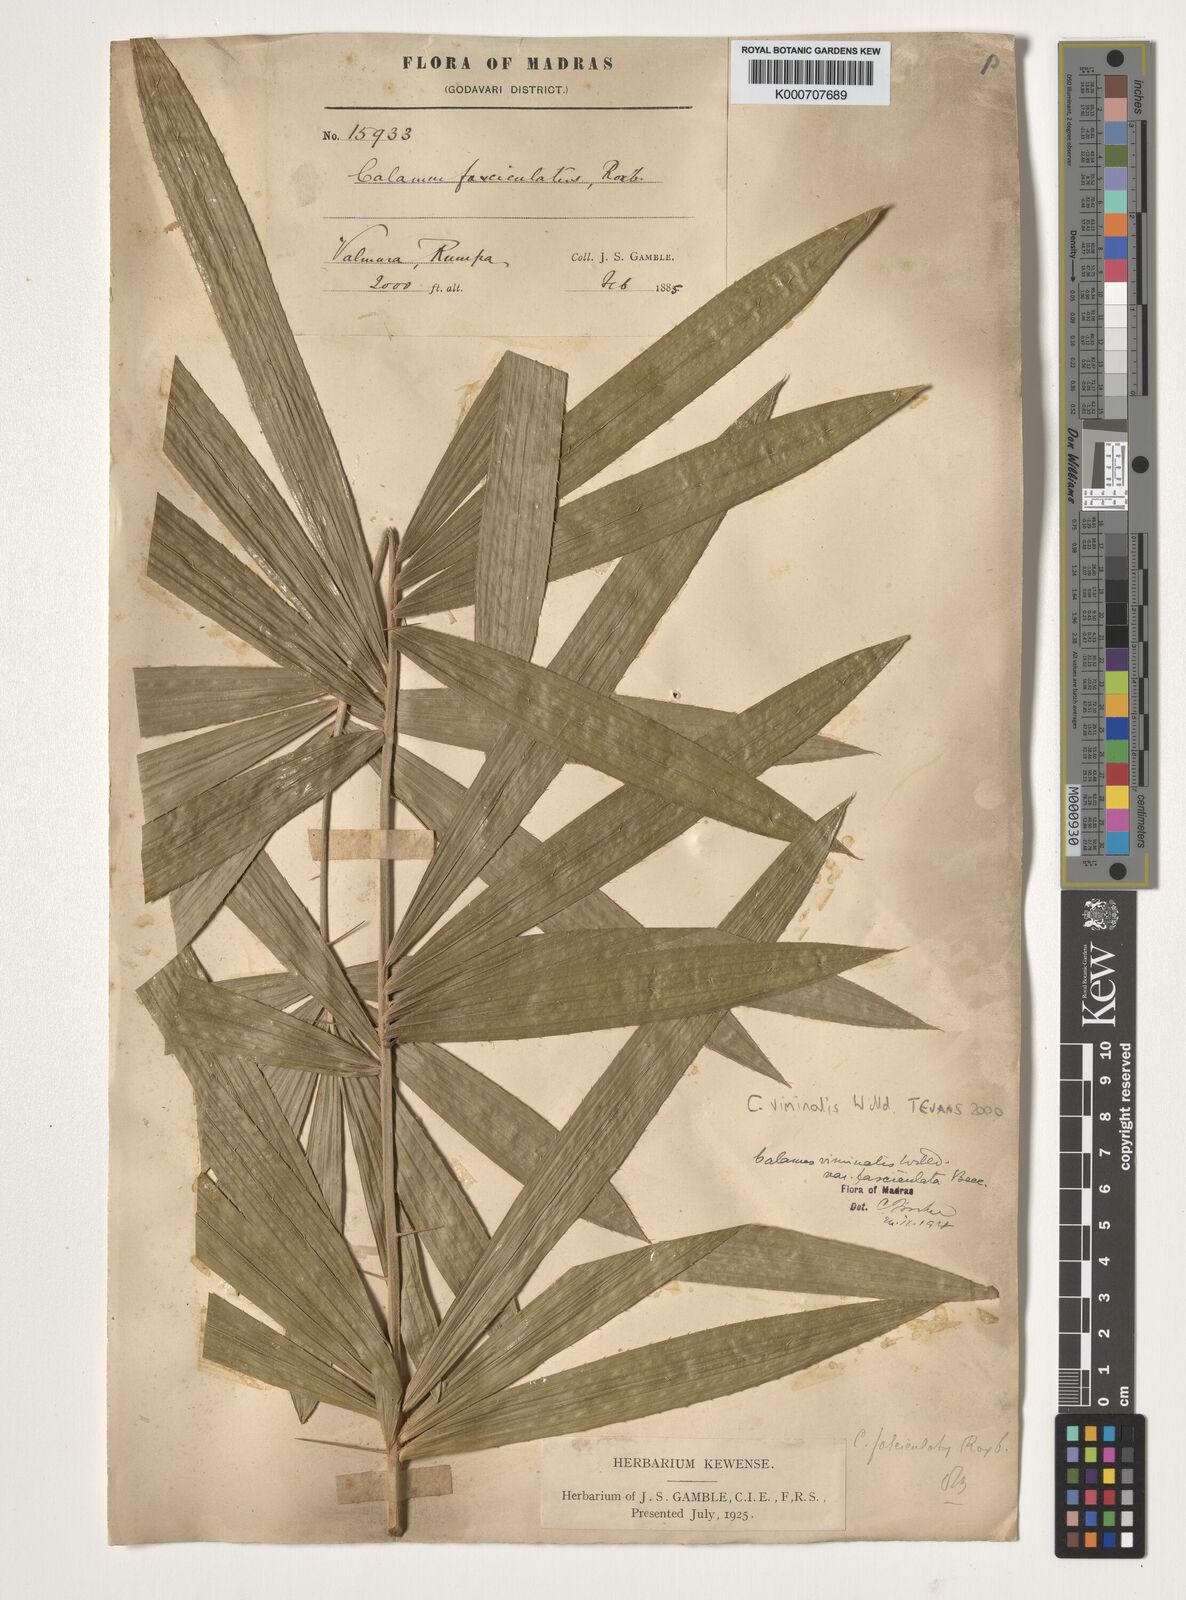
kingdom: Plantae
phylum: Tracheophyta
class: Liliopsida
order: Arecales
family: Arecaceae
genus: Calamus
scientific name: Calamus viminalis
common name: Osier-like rattan palm
